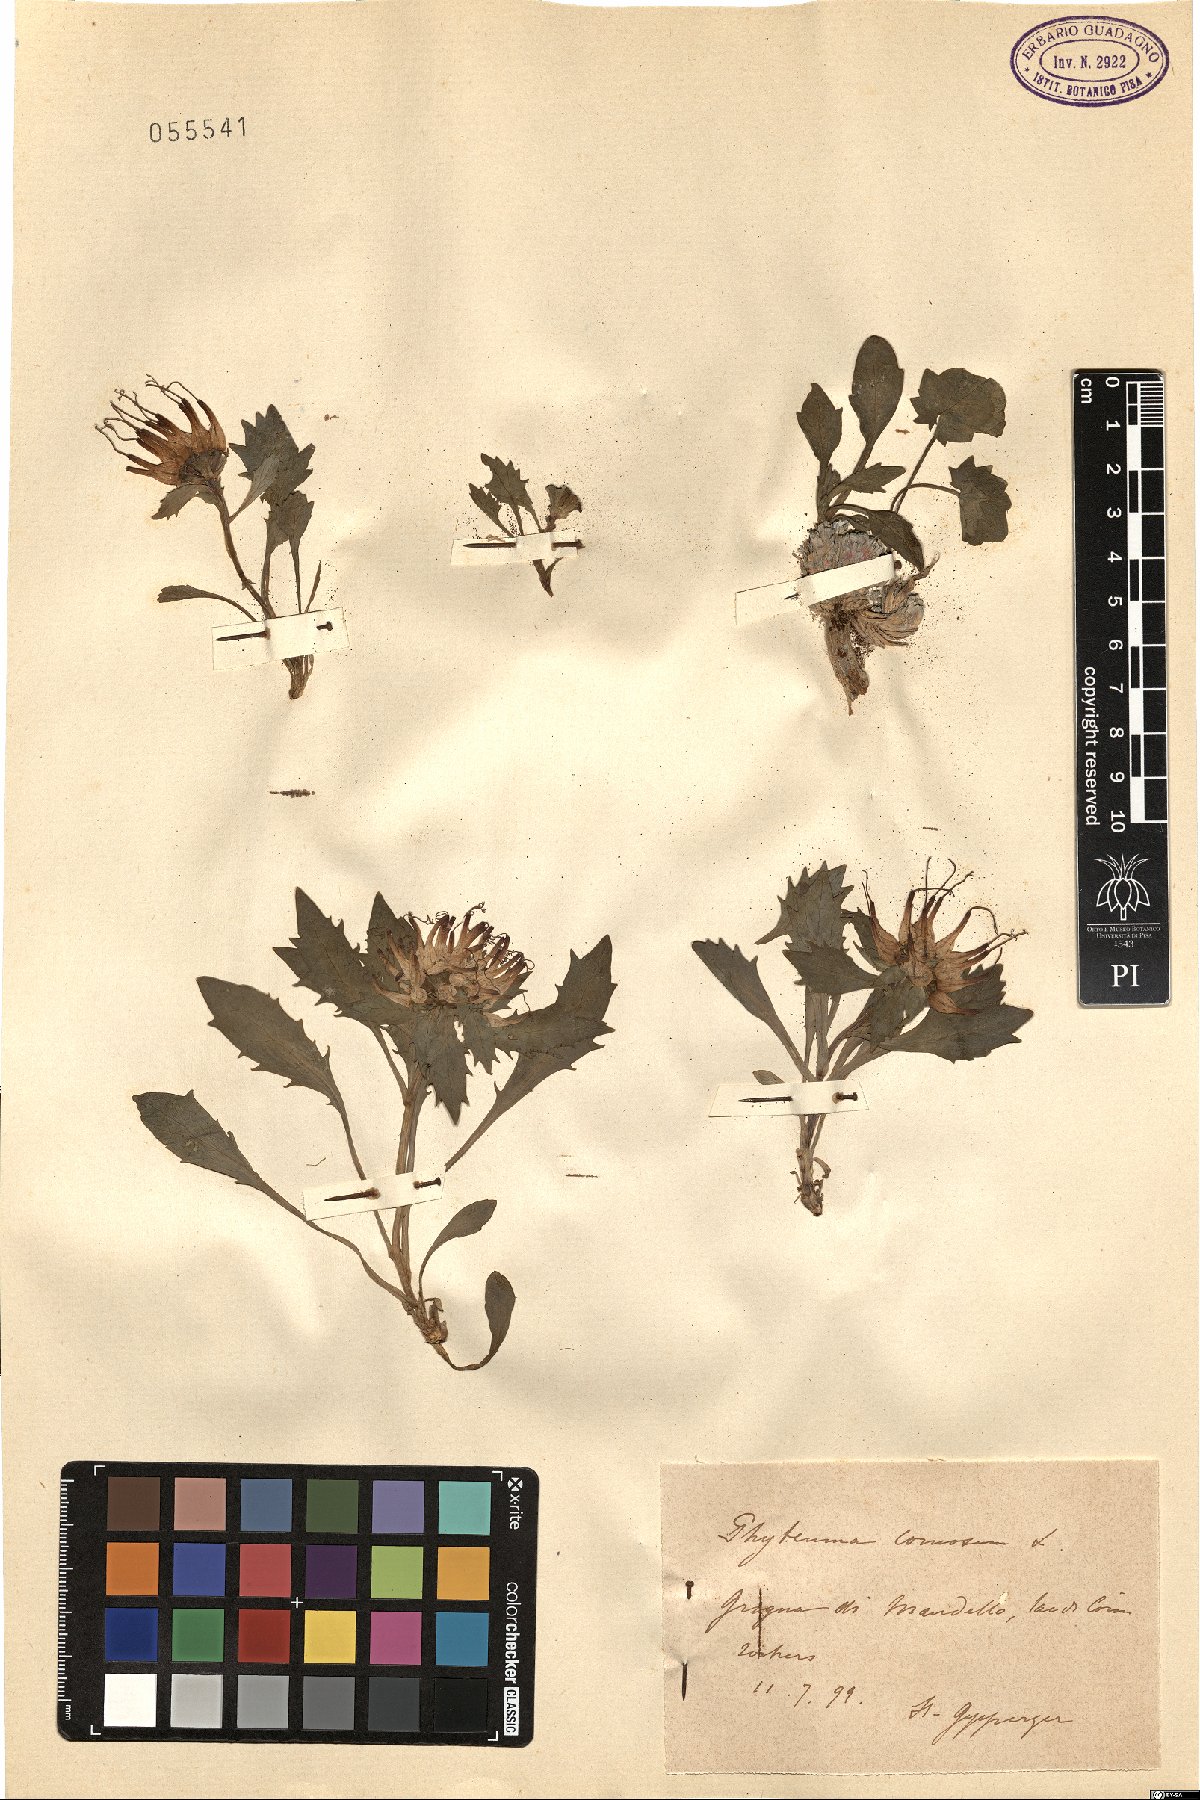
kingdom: Plantae
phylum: Tracheophyta
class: Magnoliopsida
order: Asterales
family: Campanulaceae
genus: Physoplexis
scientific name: Physoplexis comosa
